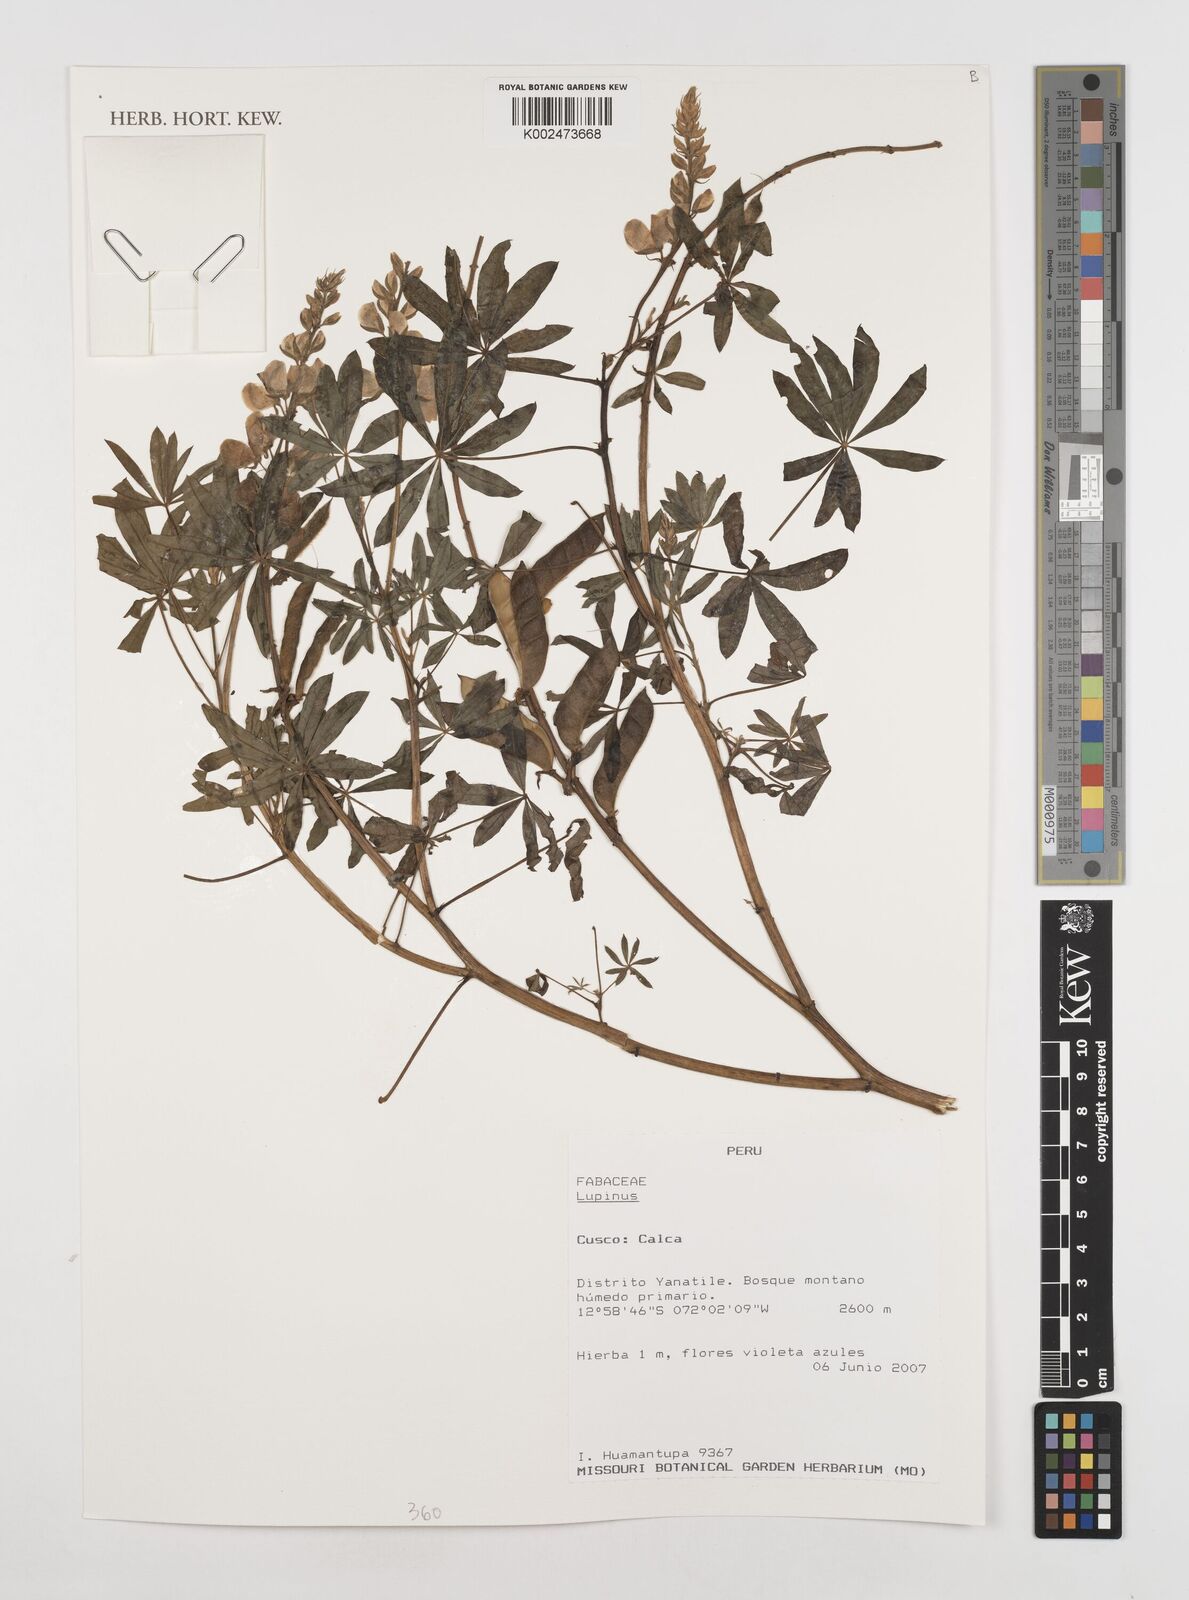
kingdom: Plantae
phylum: Tracheophyta
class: Magnoliopsida
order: Fabales
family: Fabaceae
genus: Lupinus
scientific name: Lupinus
